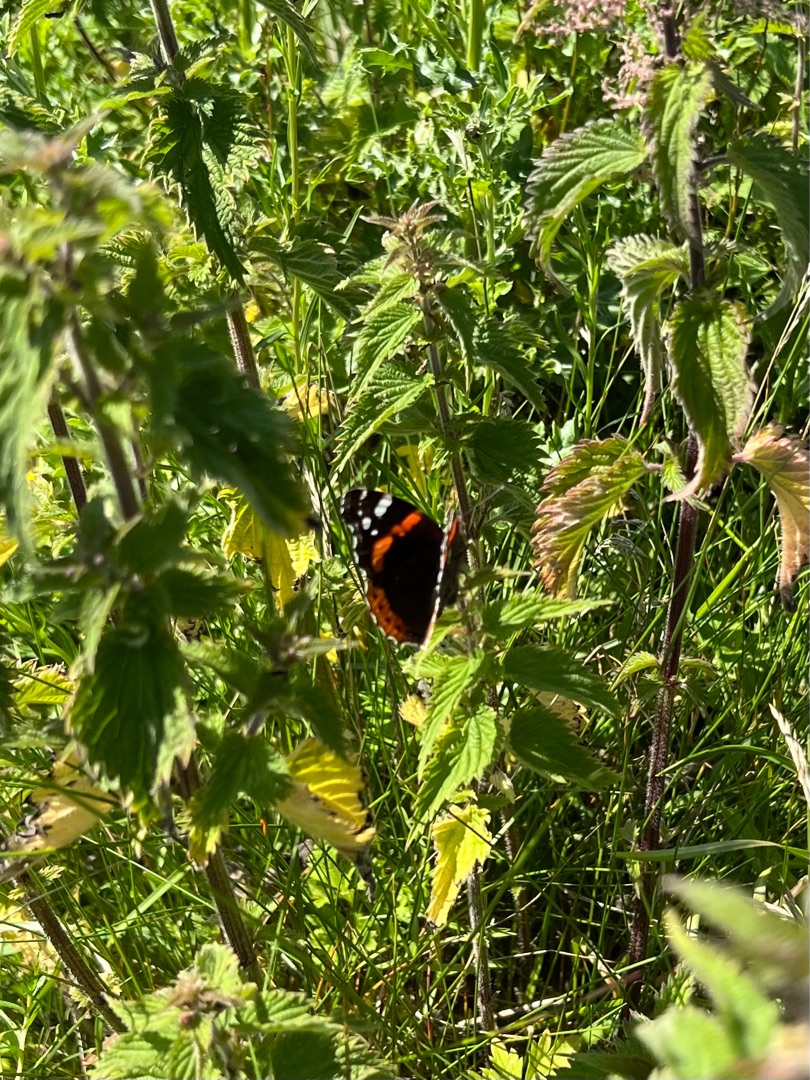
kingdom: Animalia
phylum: Arthropoda
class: Insecta
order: Lepidoptera
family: Nymphalidae
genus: Vanessa
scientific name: Vanessa atalanta
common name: Admiral
